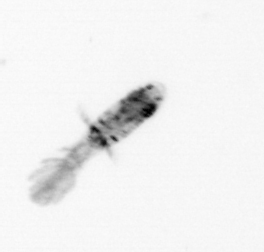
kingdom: Animalia
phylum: Arthropoda
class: Copepoda
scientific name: Copepoda
